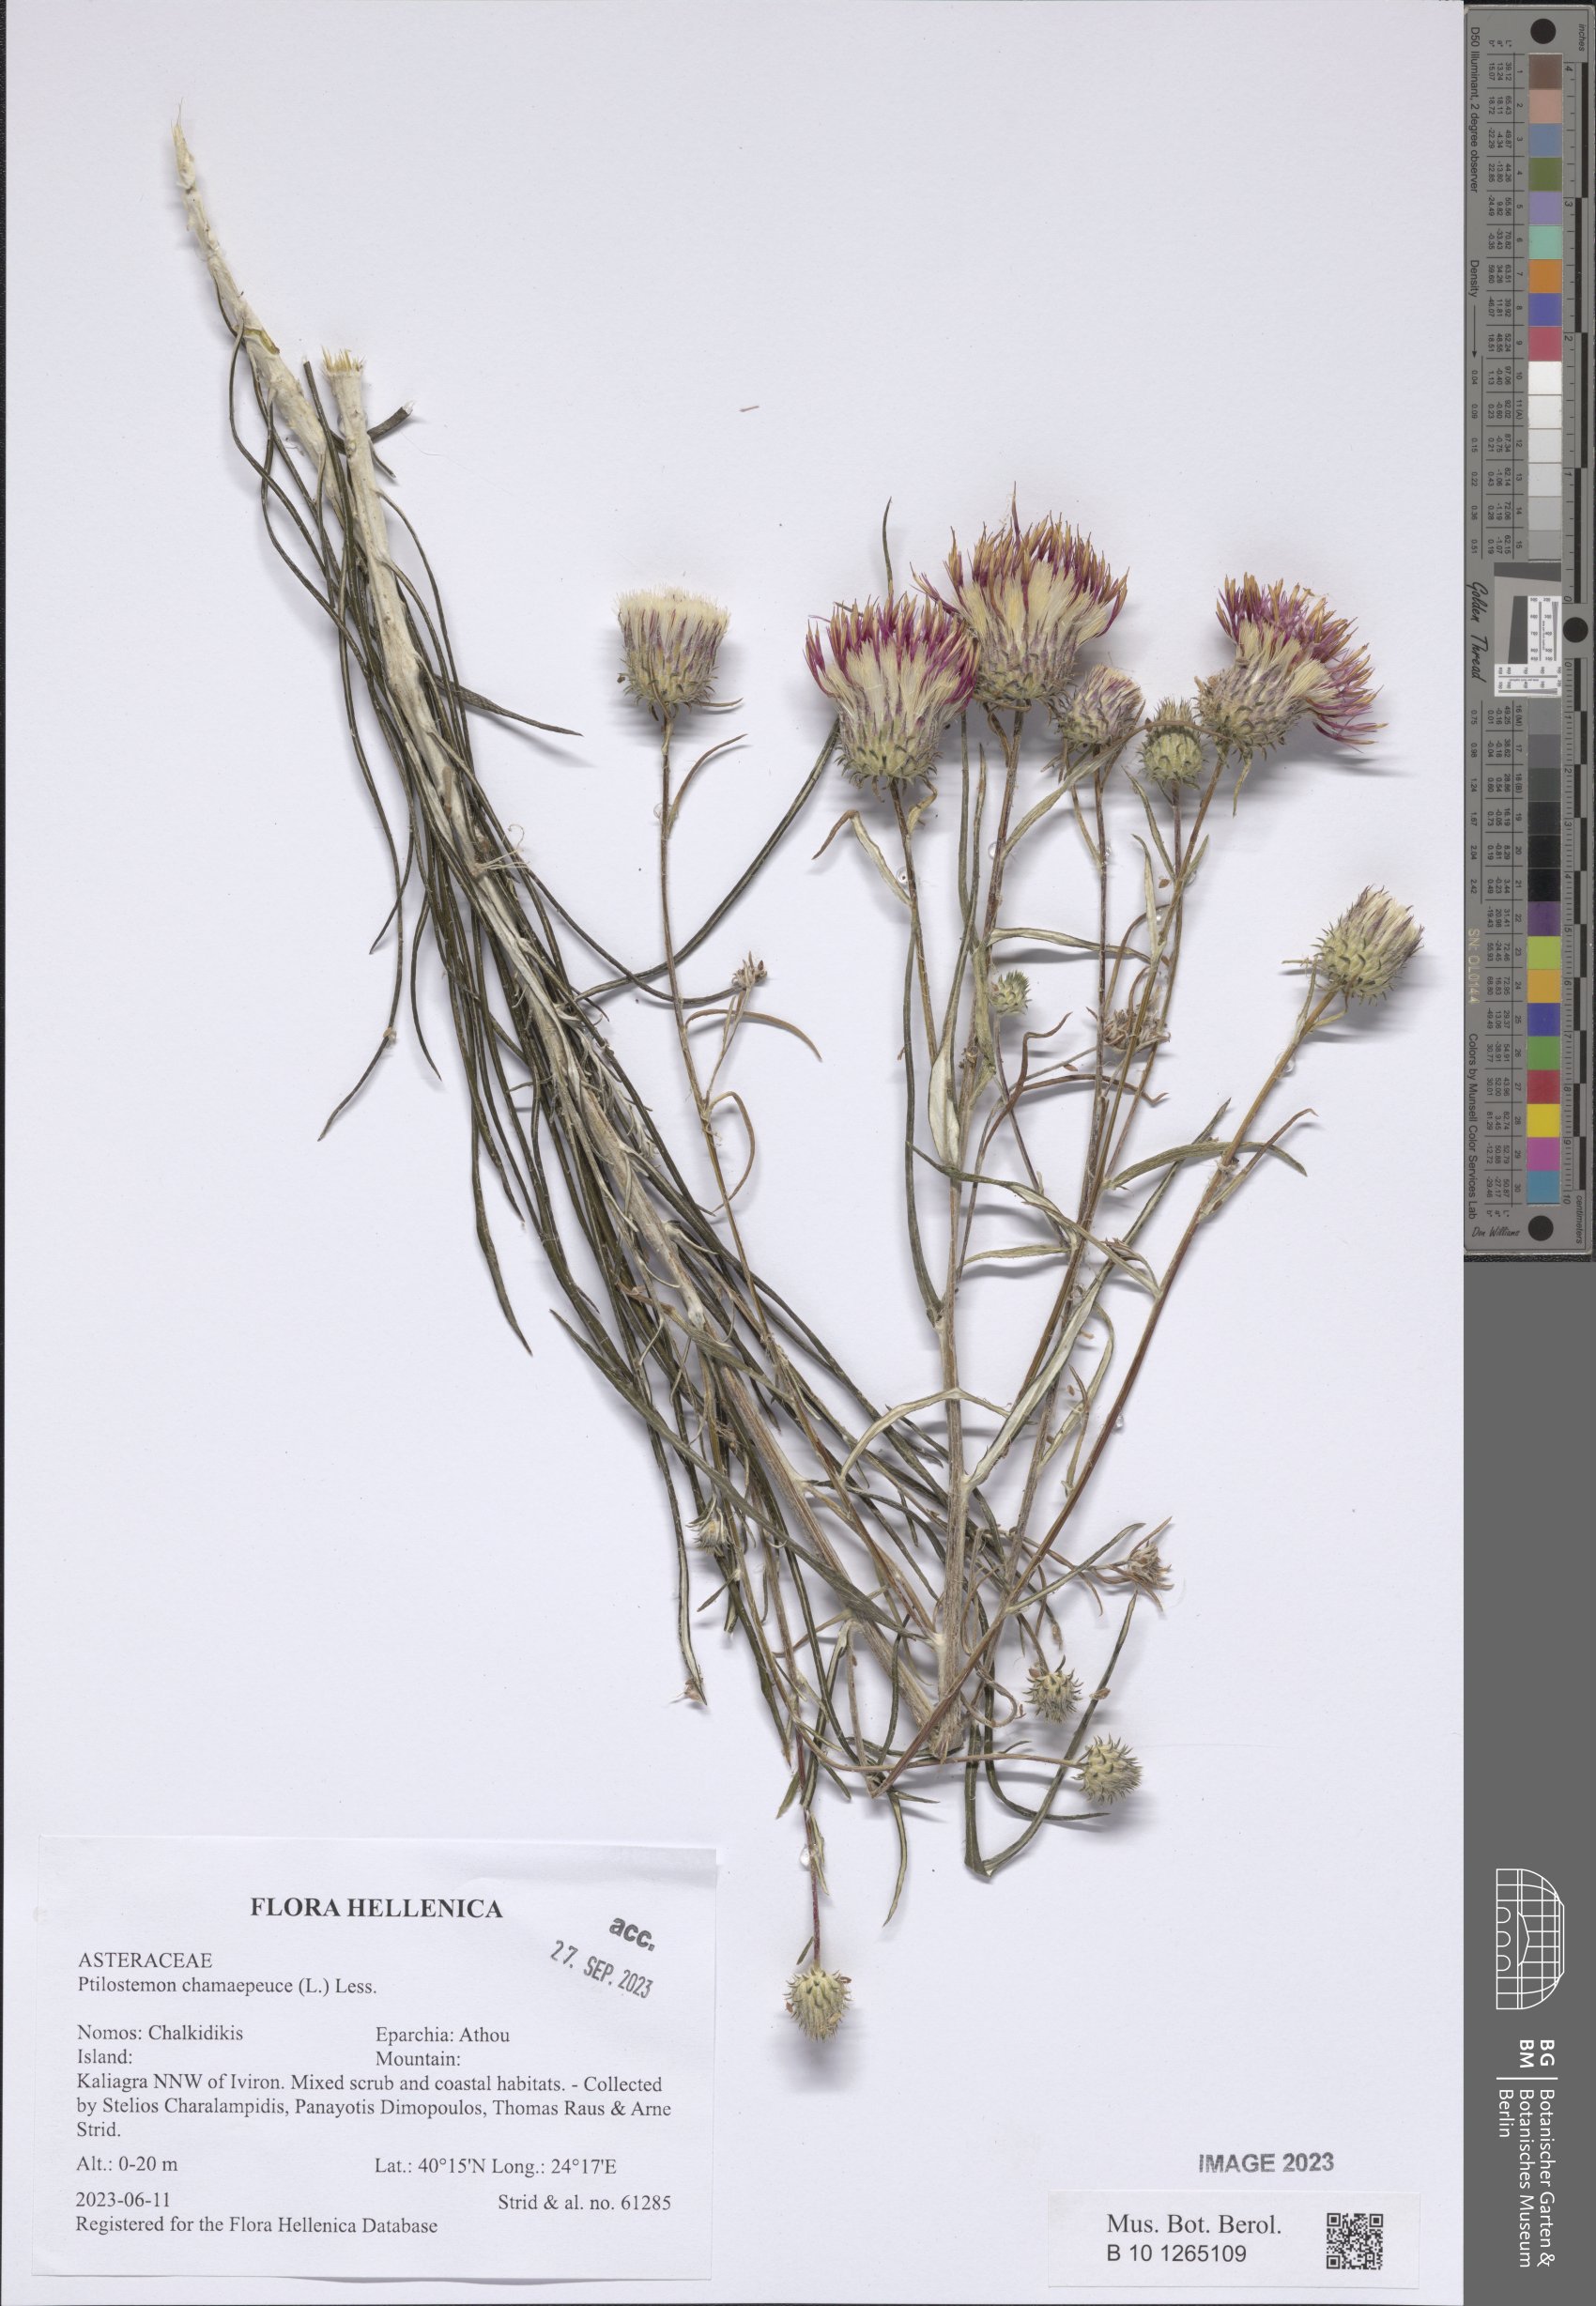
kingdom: Plantae
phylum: Tracheophyta
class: Magnoliopsida
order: Asterales
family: Asteraceae
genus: Ptilostemon
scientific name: Ptilostemon chamaepeuce
